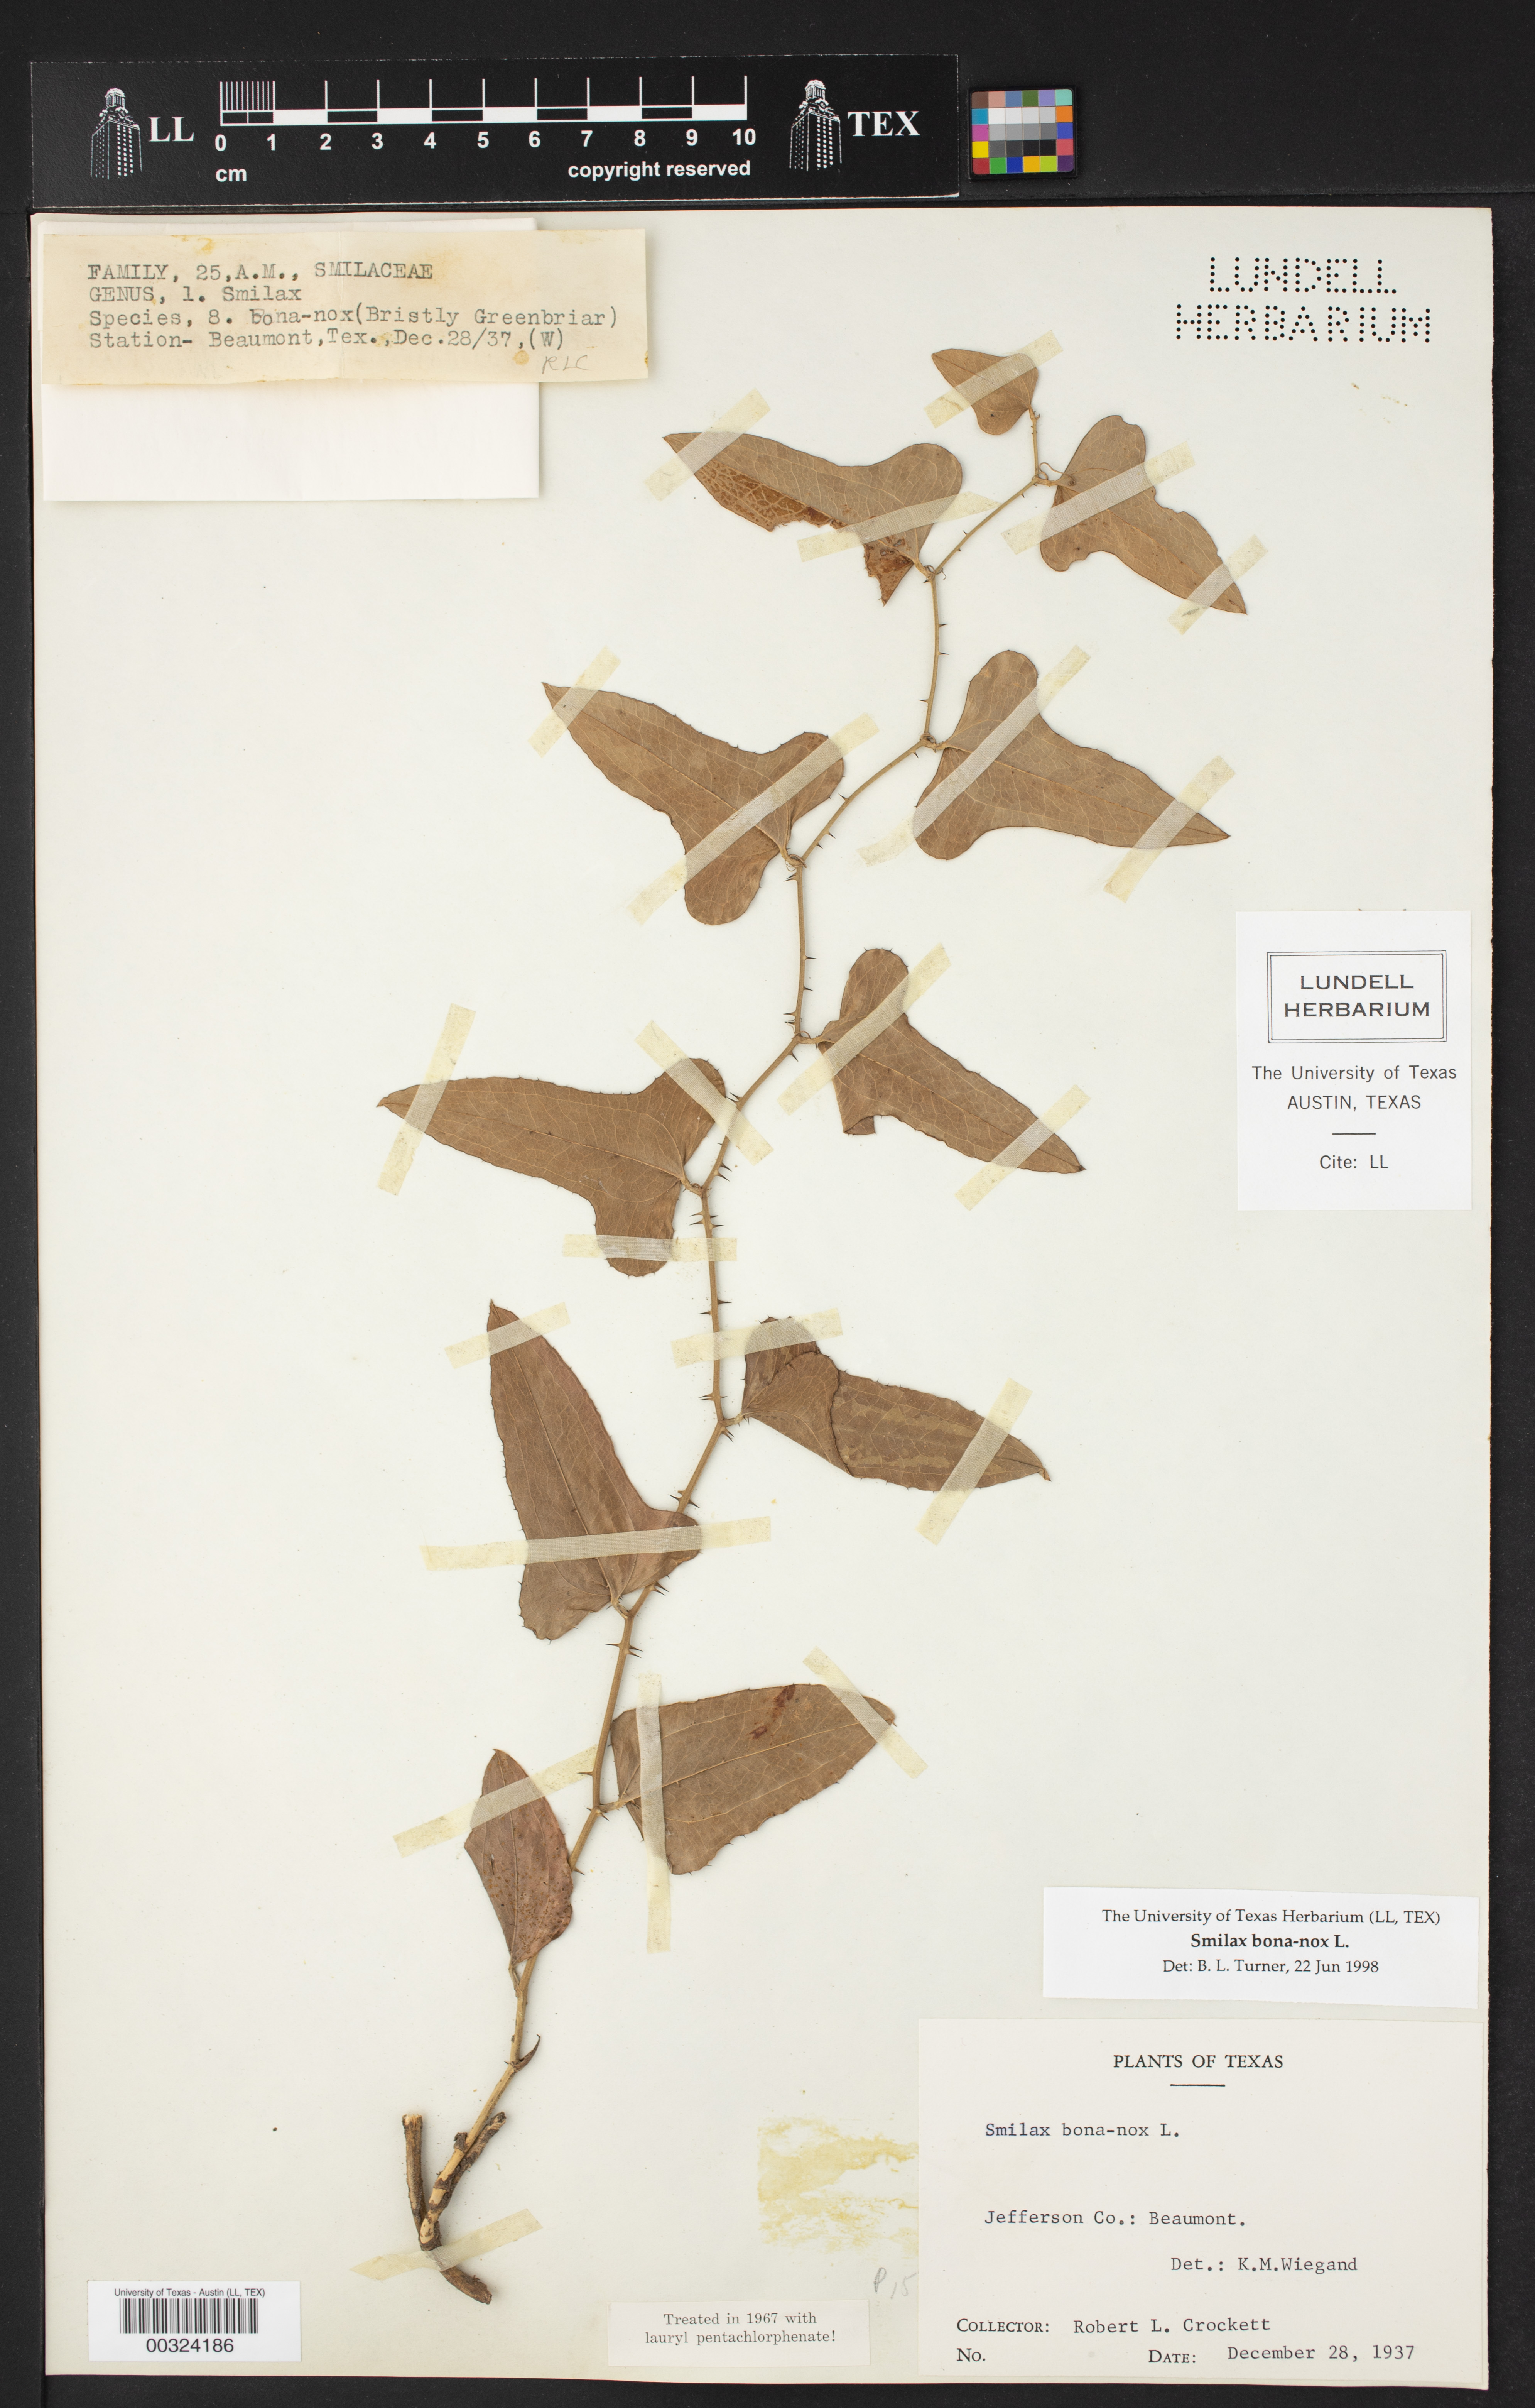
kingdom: Plantae
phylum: Tracheophyta
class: Liliopsida
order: Liliales
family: Smilacaceae
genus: Smilax
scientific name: Smilax bona-nox
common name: Catbrier
